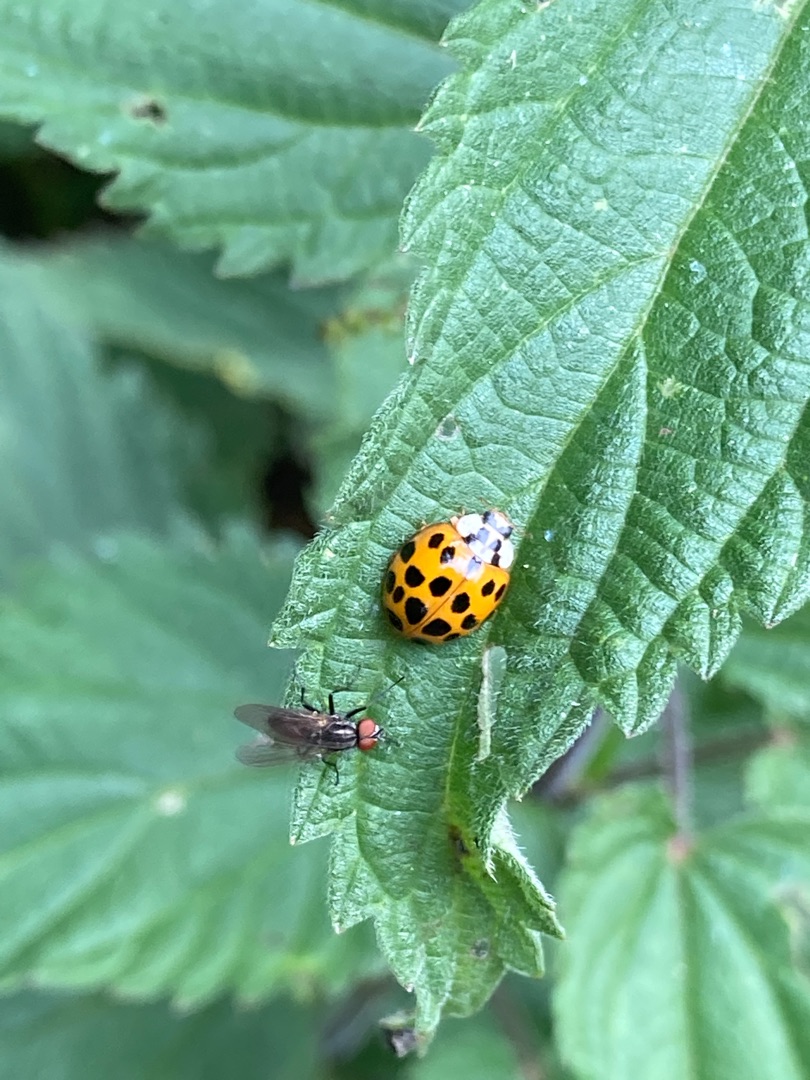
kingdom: Animalia
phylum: Arthropoda
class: Insecta
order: Coleoptera
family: Coccinellidae
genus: Harmonia
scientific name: Harmonia axyridis
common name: Harlekinmariehøne
